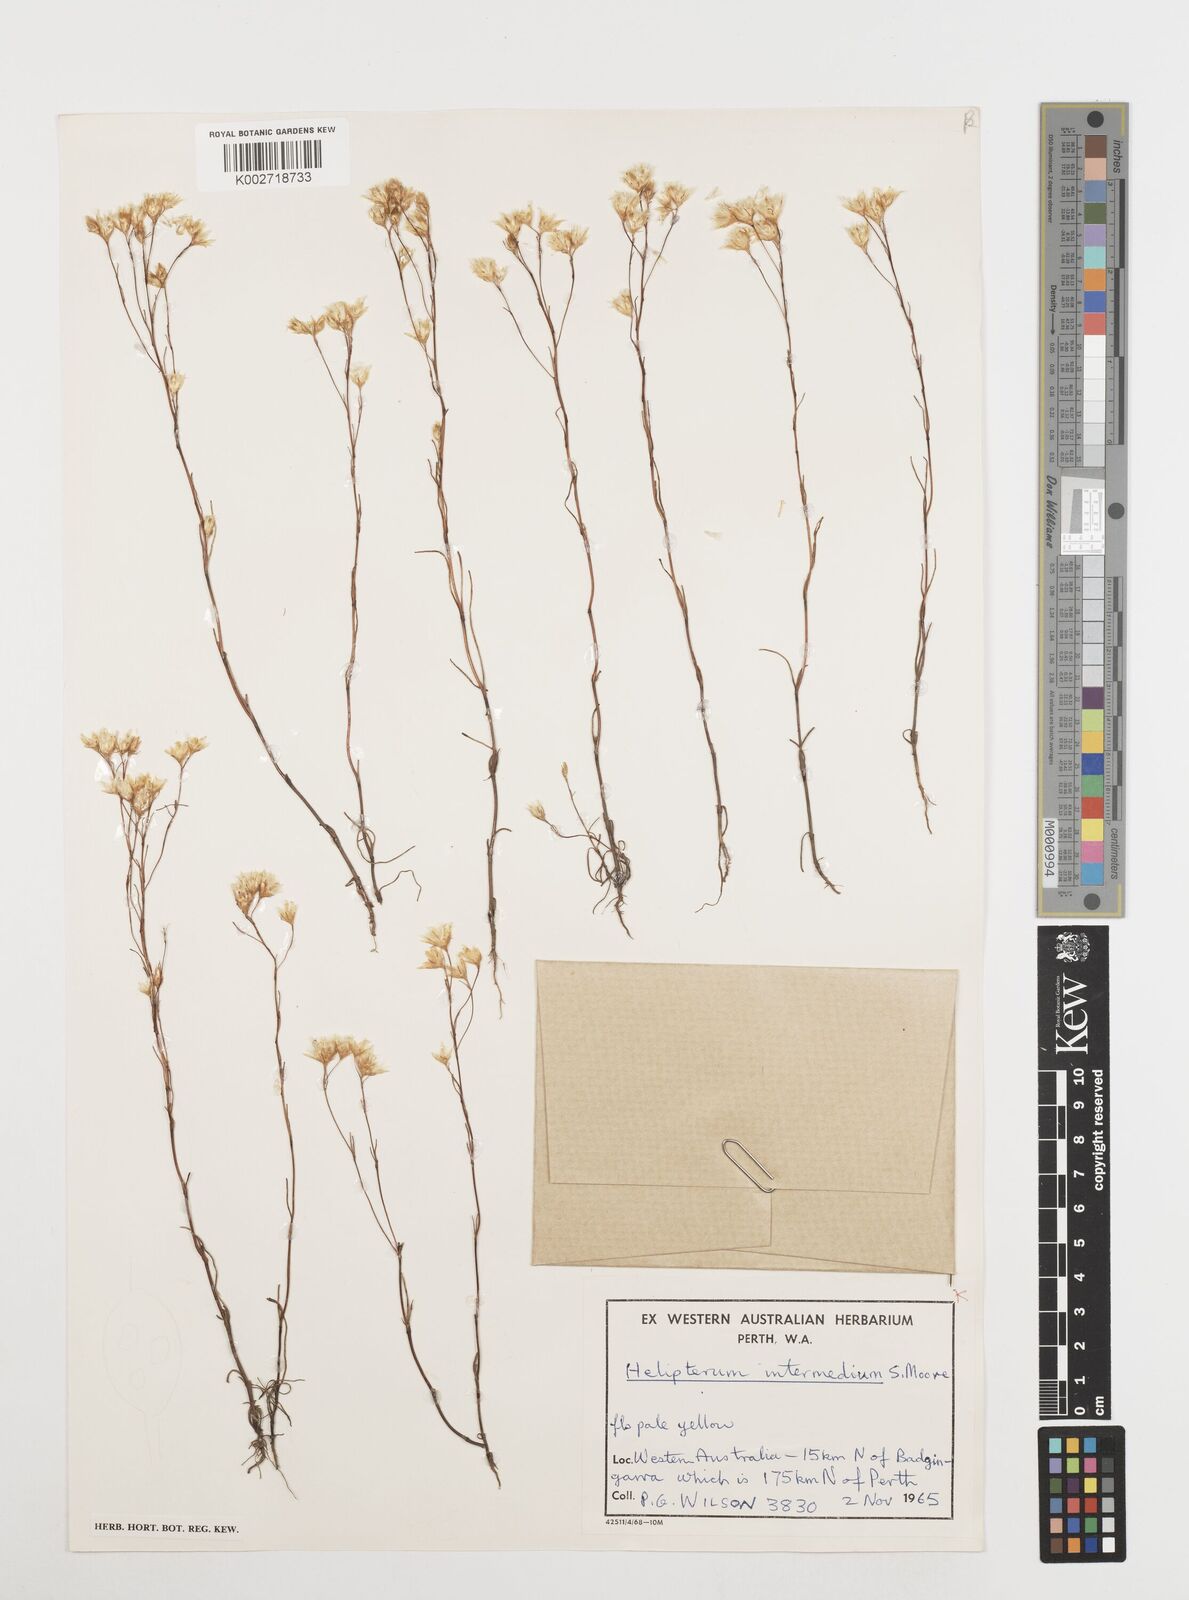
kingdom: Plantae
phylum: Tracheophyta
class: Magnoliopsida
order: Asterales
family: Asteraceae
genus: Erymophyllum
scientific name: Erymophyllum tenellum
